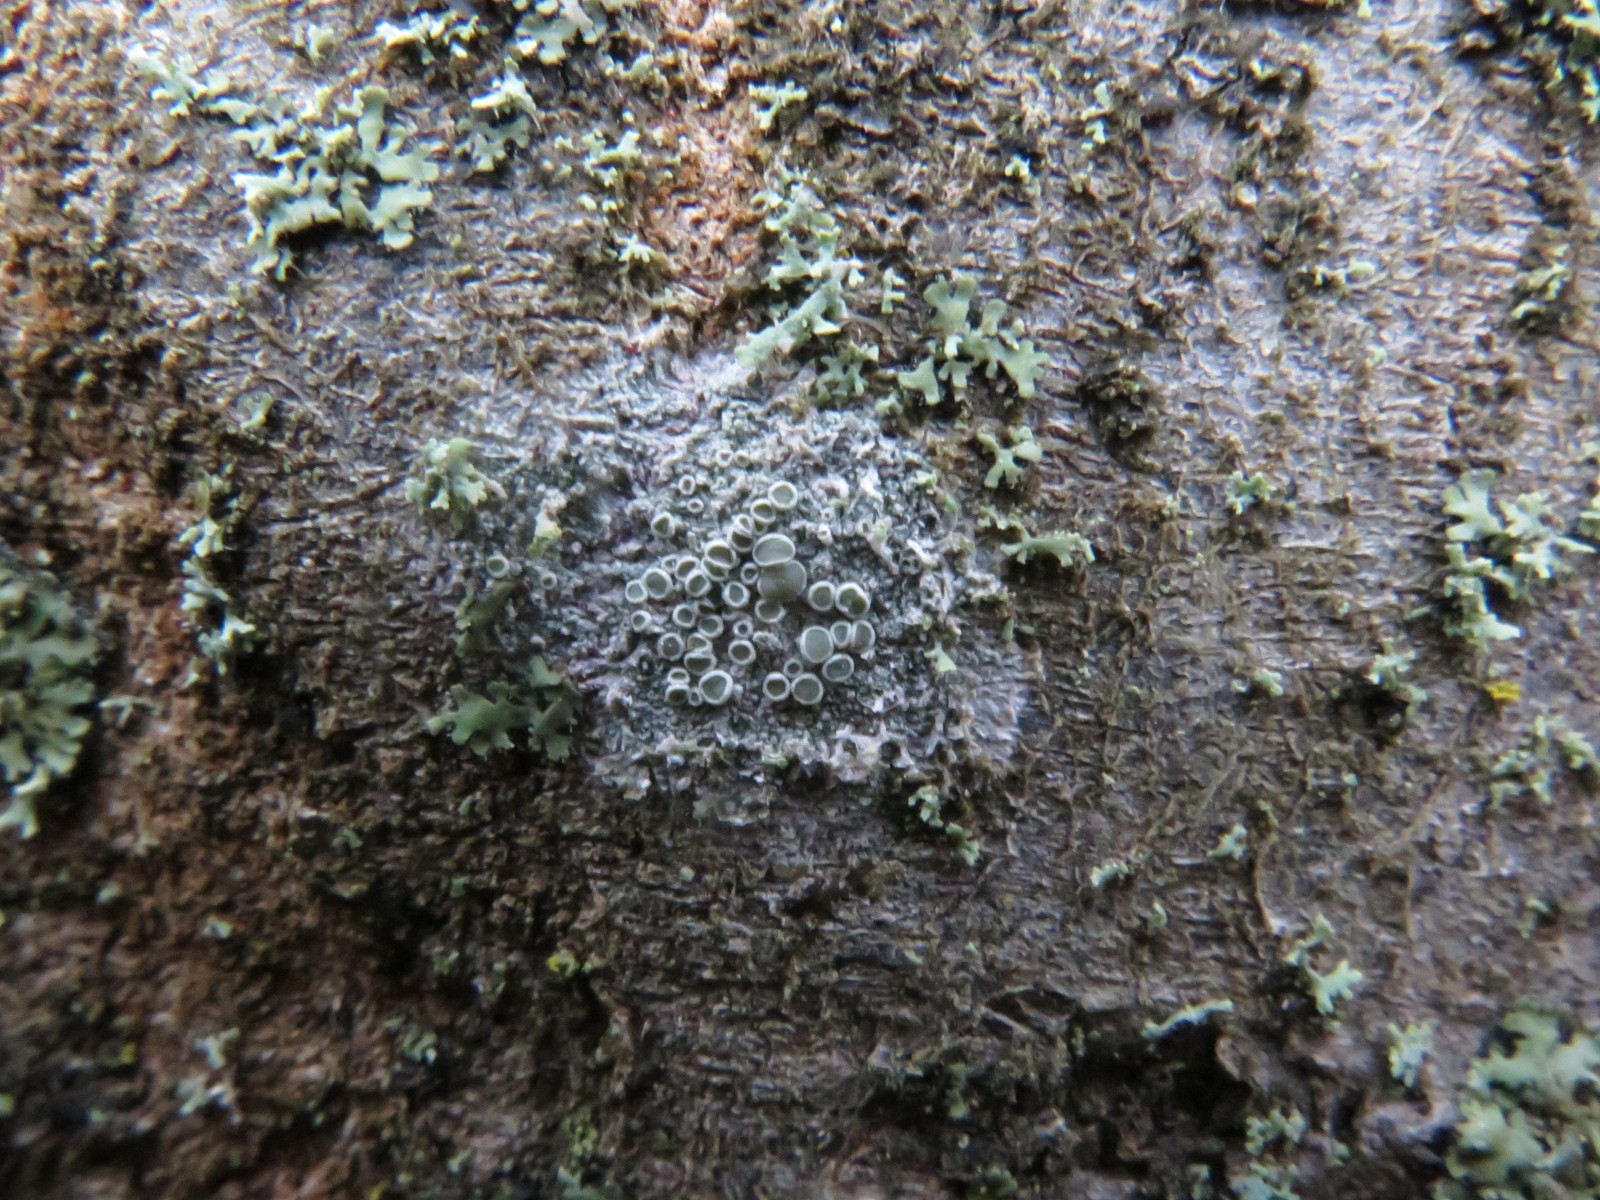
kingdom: Fungi
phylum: Ascomycota
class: Lecanoromycetes
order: Lecanorales
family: Lecanoraceae
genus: Lecanora
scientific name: Lecanora chlarotera
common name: brun kantskivelav
